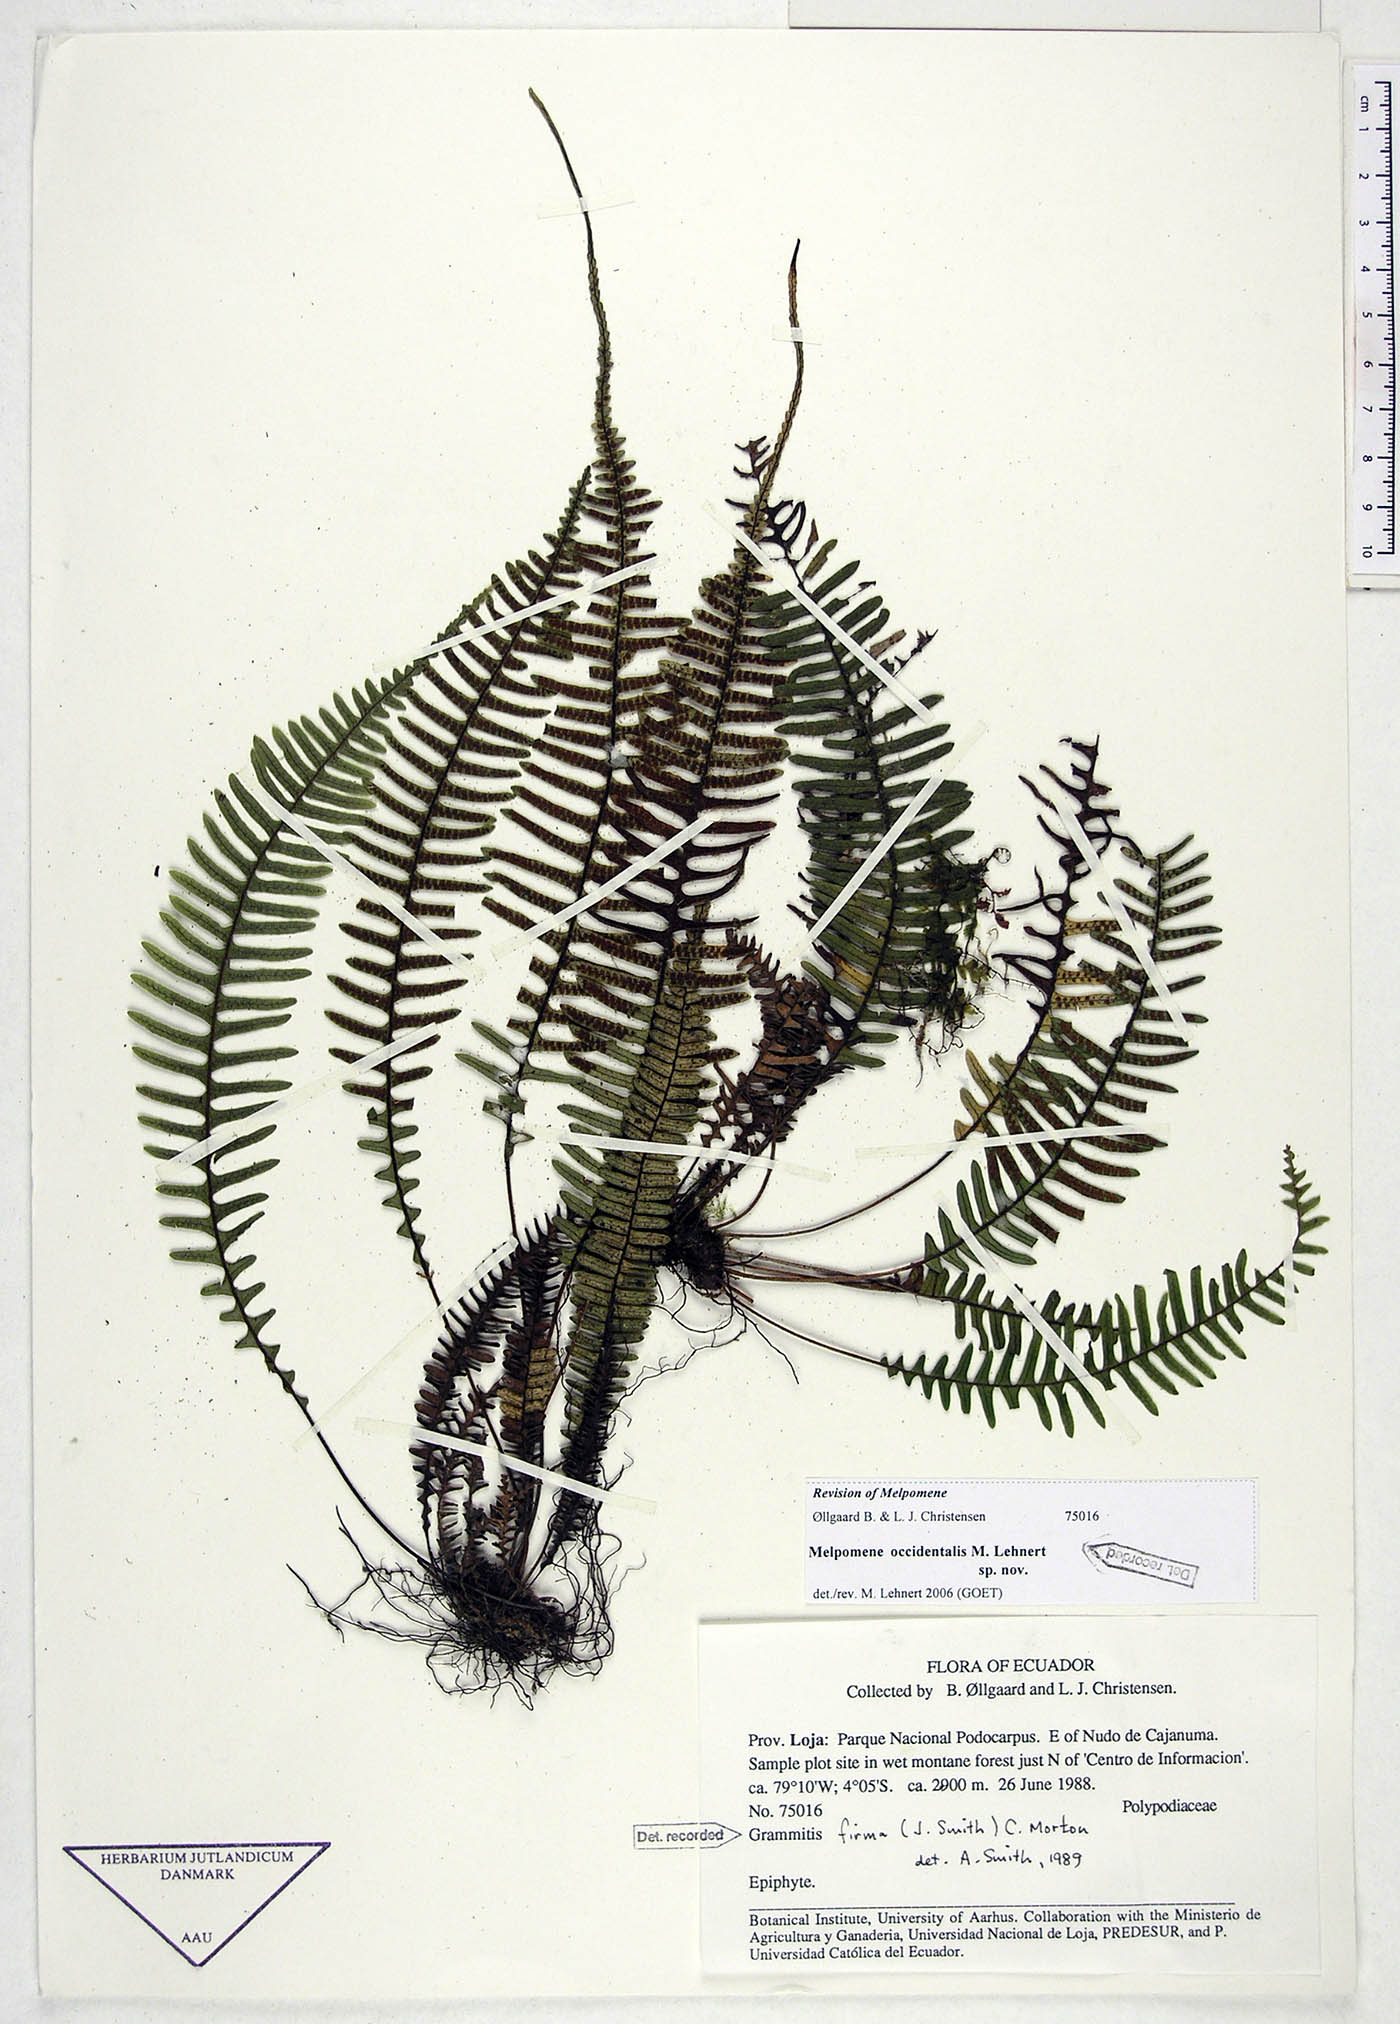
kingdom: Plantae
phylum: Tracheophyta
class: Polypodiopsida
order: Polypodiales
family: Polypodiaceae
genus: Melpomene
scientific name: Melpomene occidentalis
